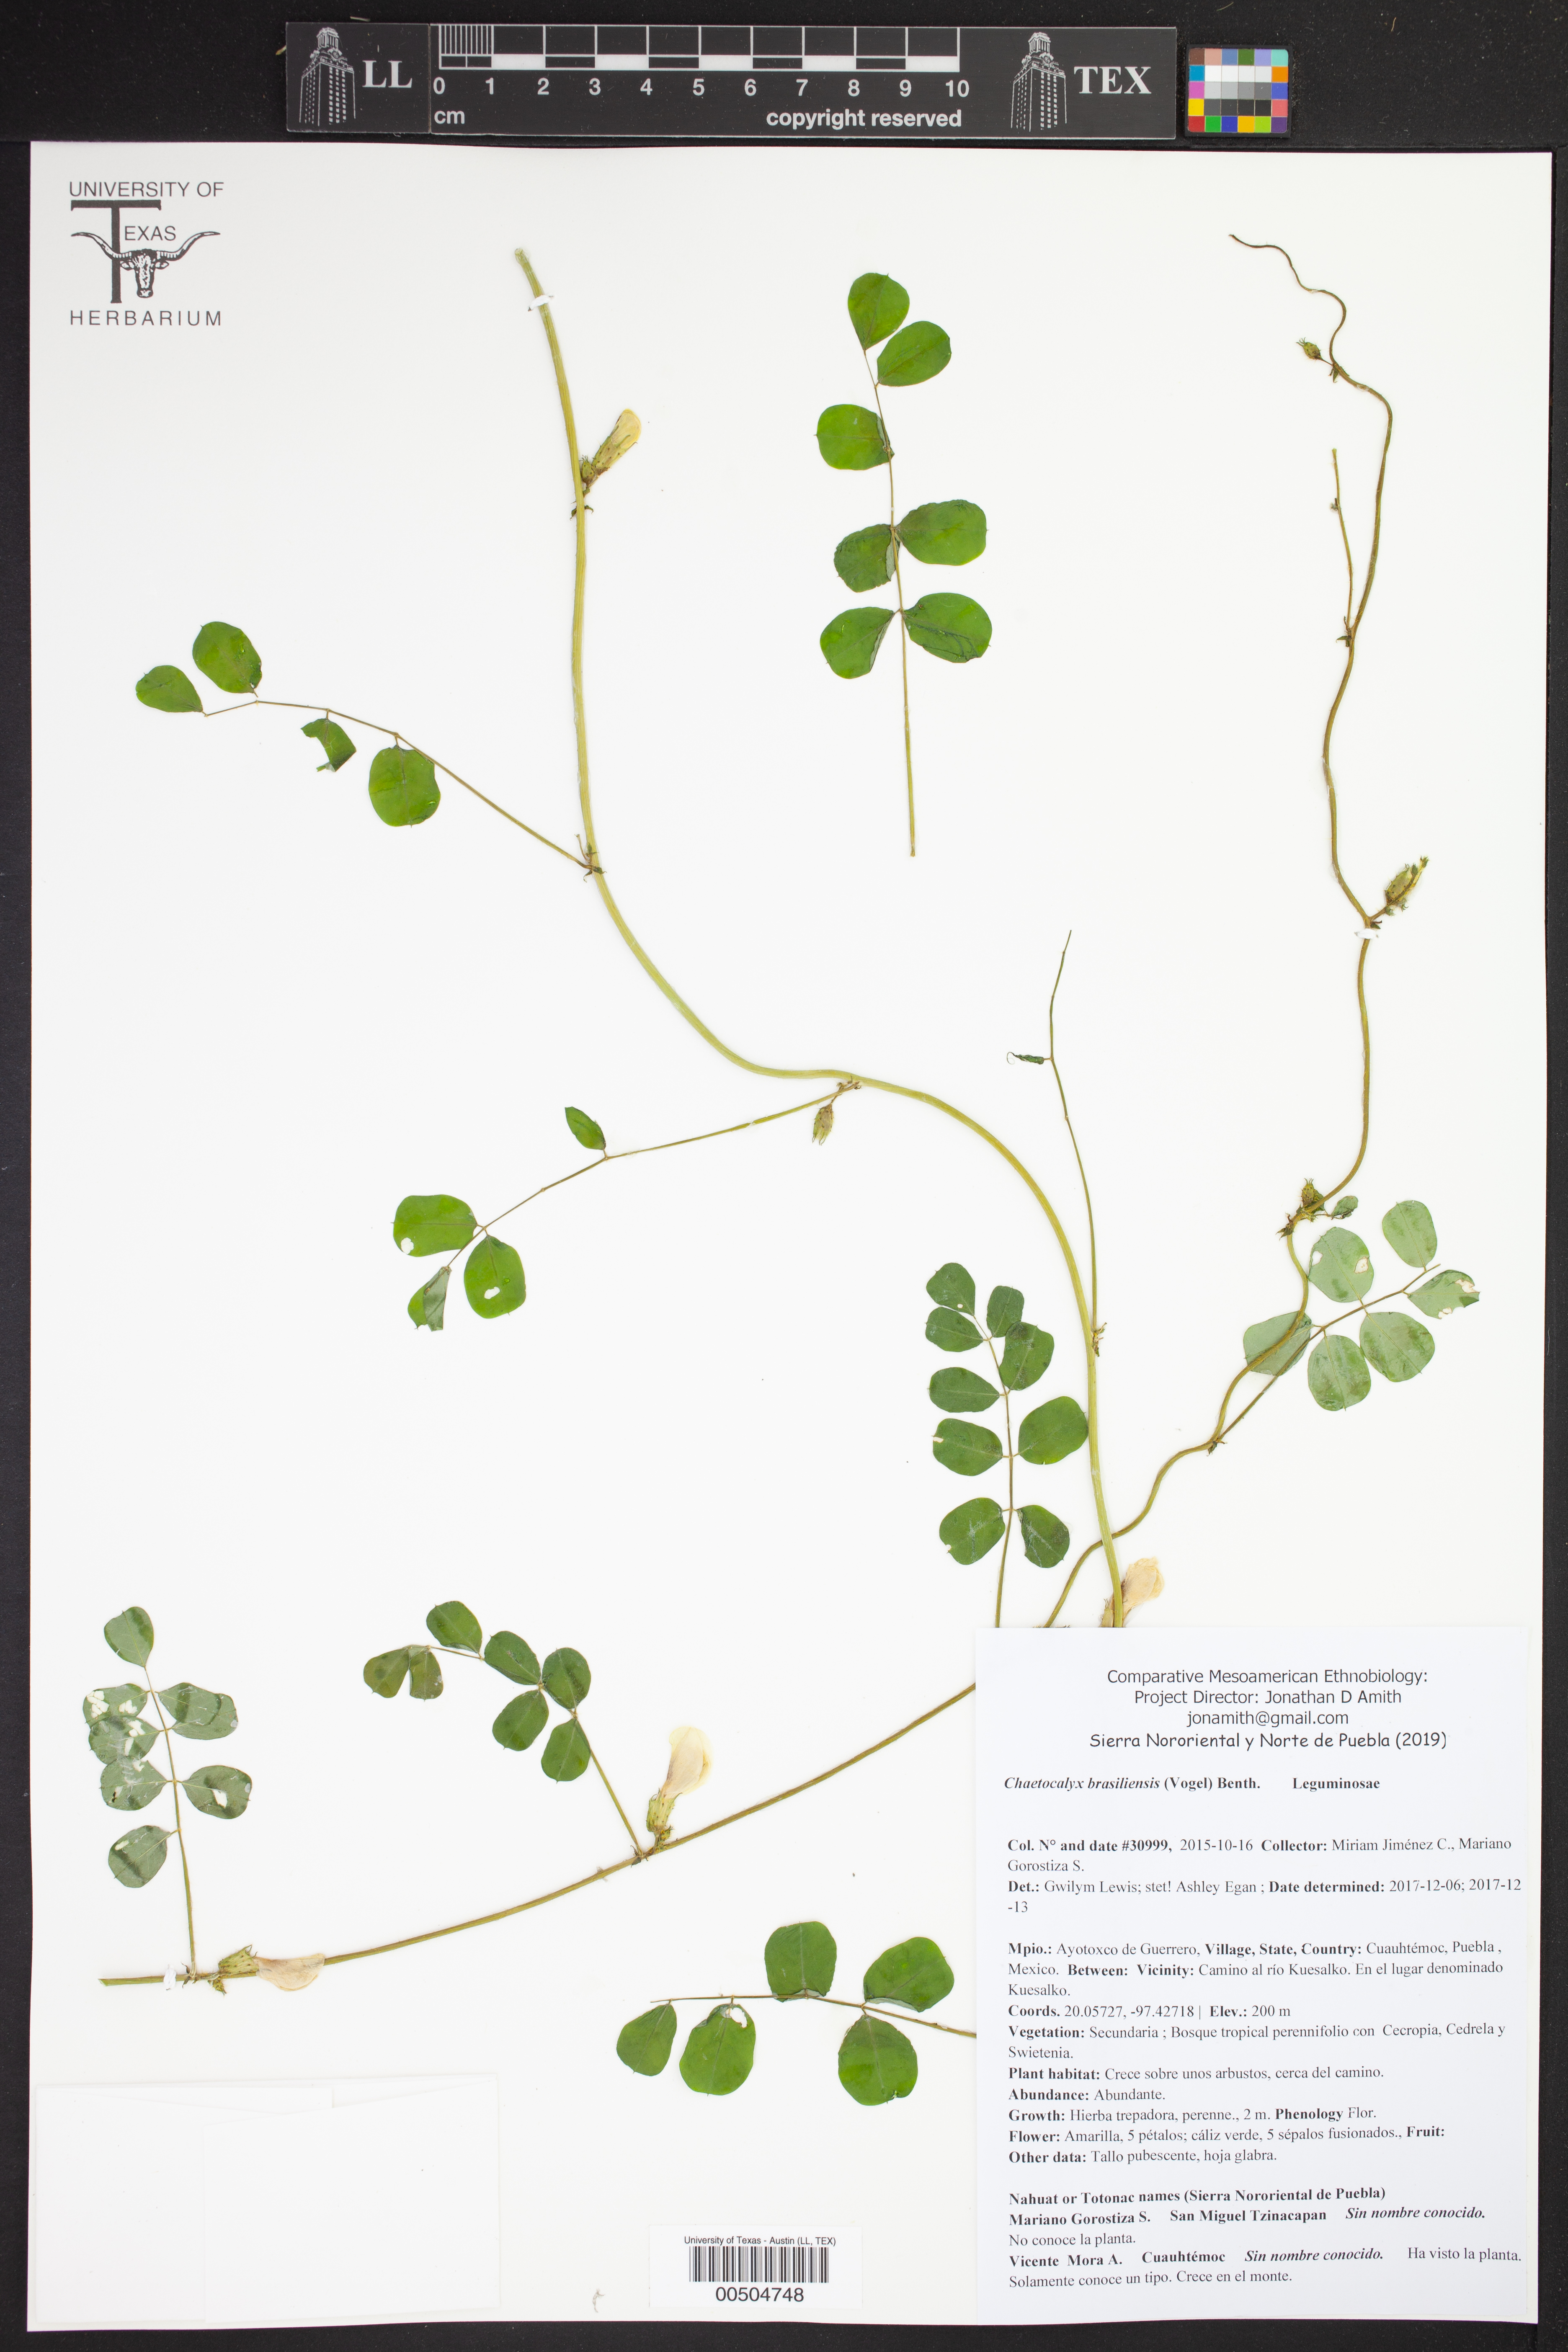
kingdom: Plantae
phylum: Tracheophyta
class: Magnoliopsida
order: Fabales
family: Fabaceae
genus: Nissolia
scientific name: Nissolia brasiliensis
